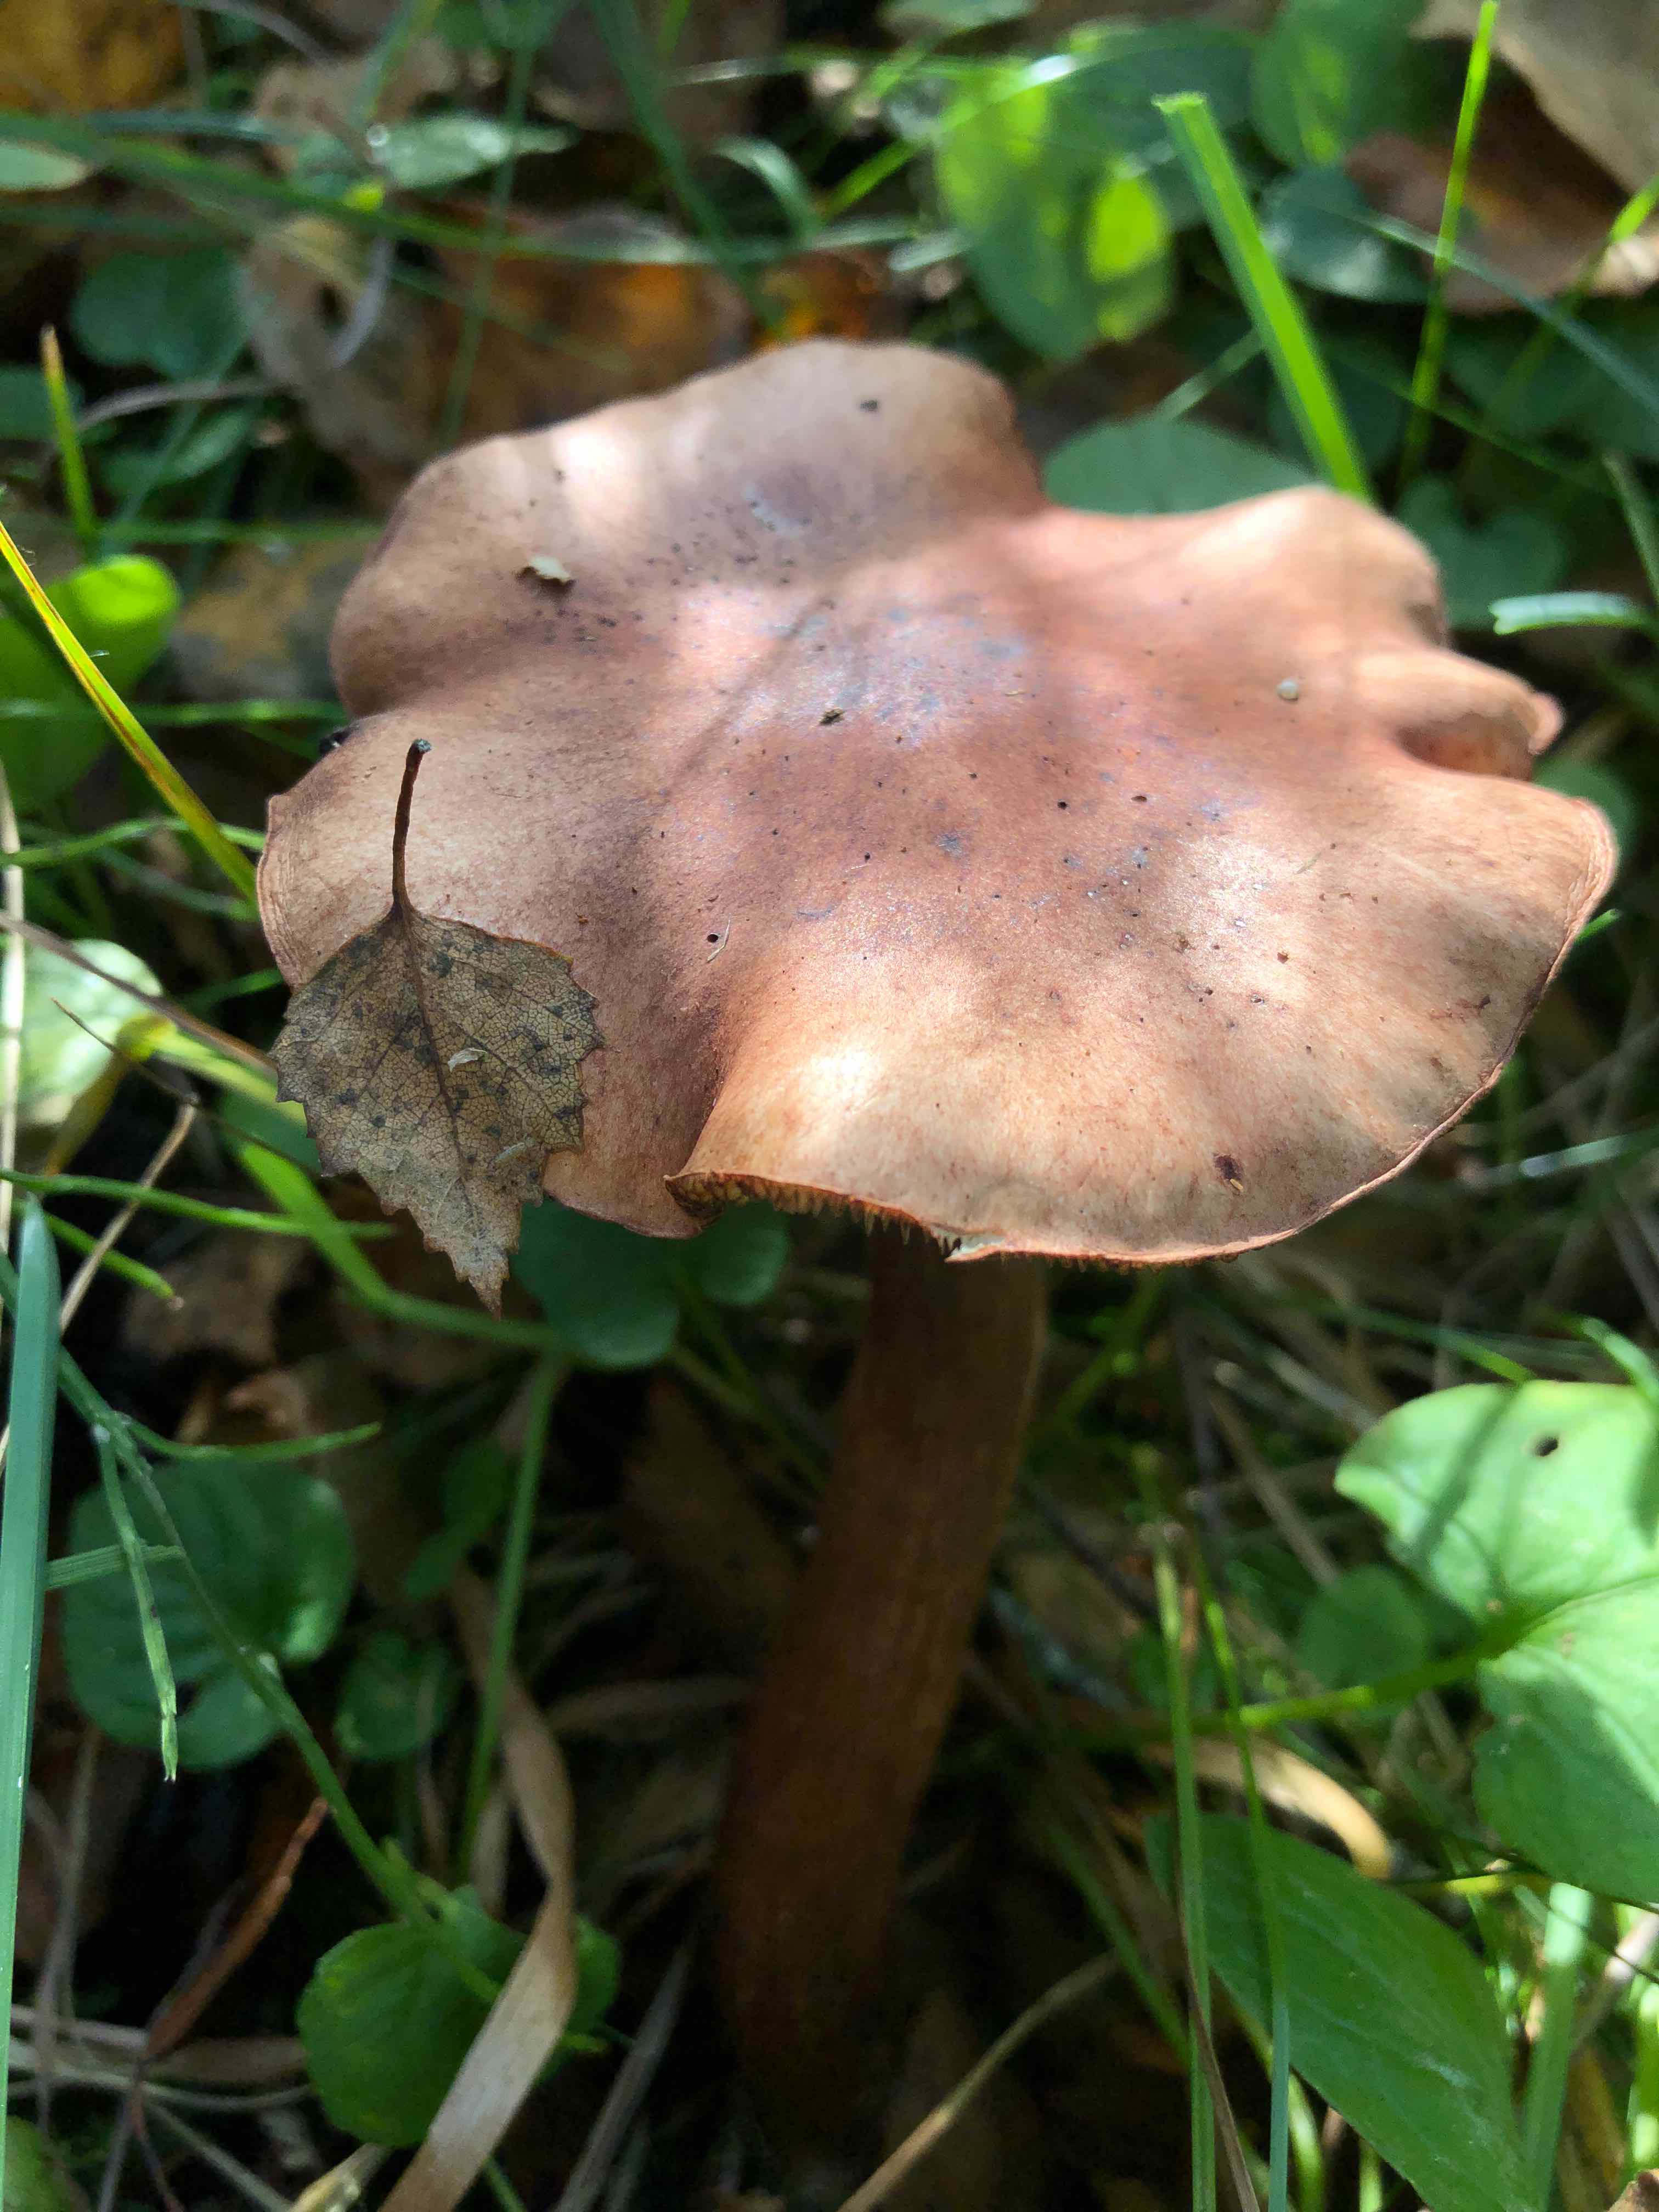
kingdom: Fungi
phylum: Basidiomycota
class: Agaricomycetes
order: Agaricales
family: Tricholomataceae
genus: Tricholoma
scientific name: Tricholoma fulvum
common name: birke-ridderhat
